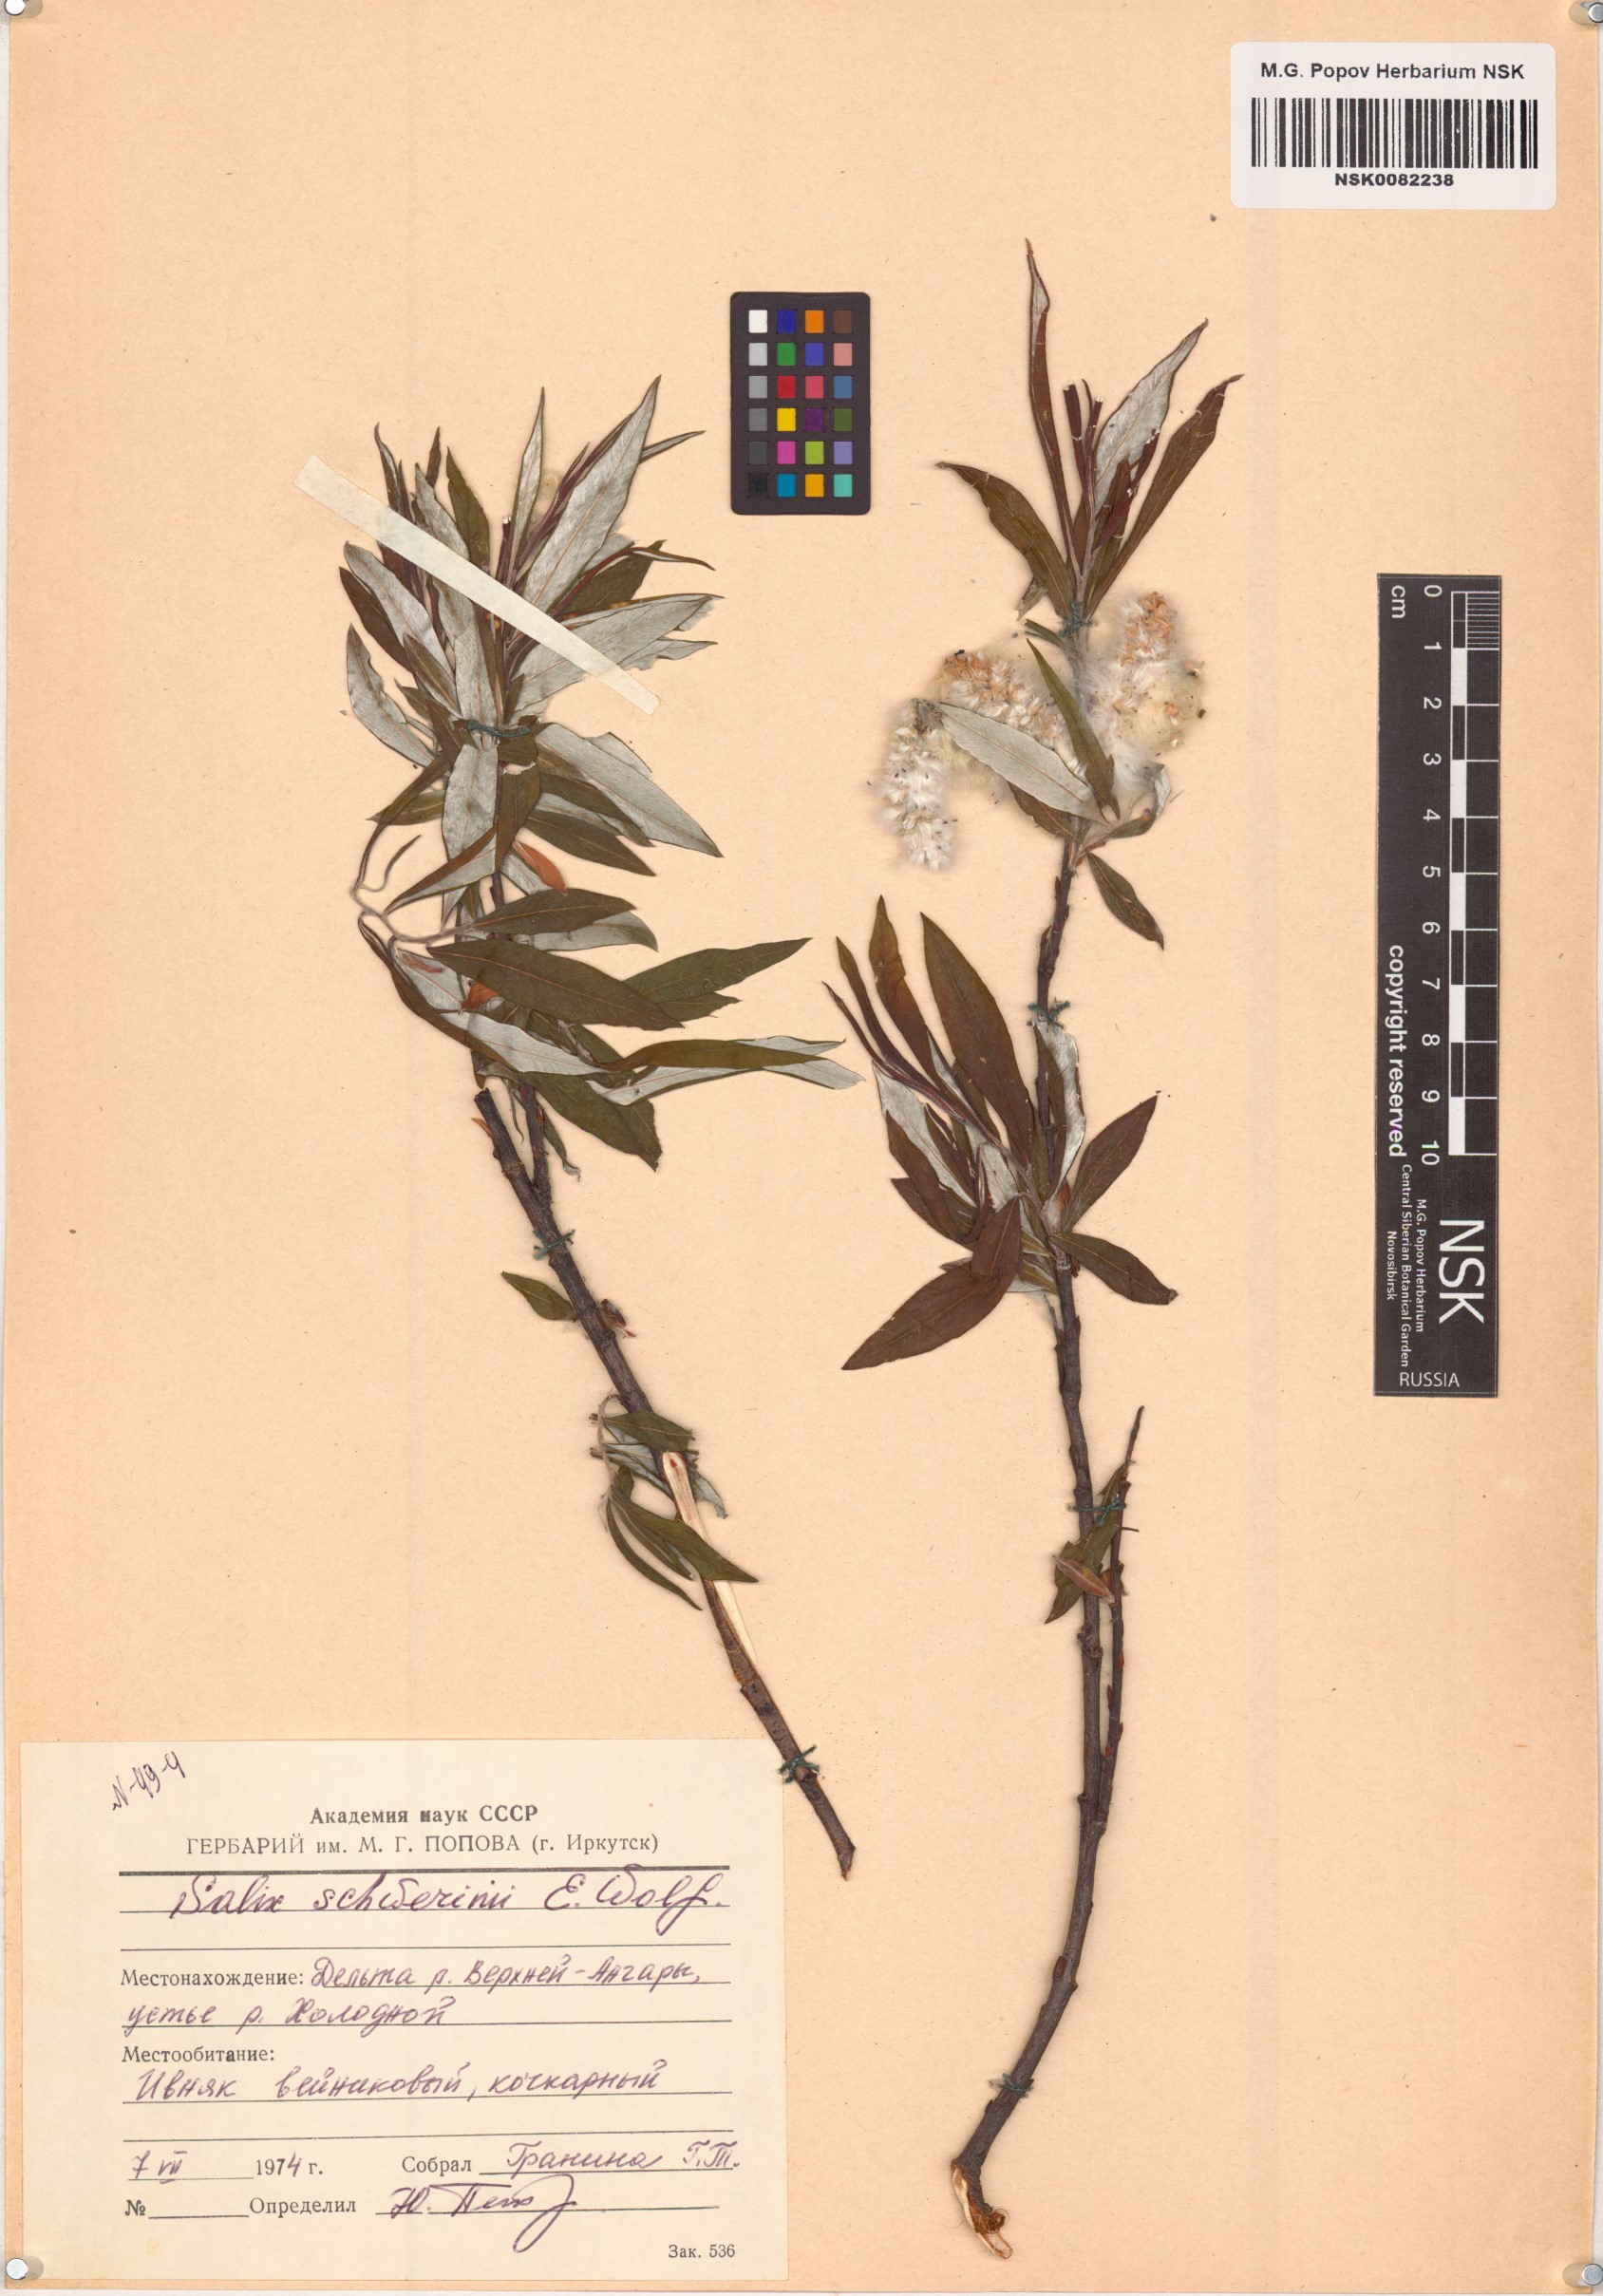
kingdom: Plantae
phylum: Tracheophyta
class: Magnoliopsida
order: Malpighiales
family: Salicaceae
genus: Salix
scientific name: Salix schwerinii
